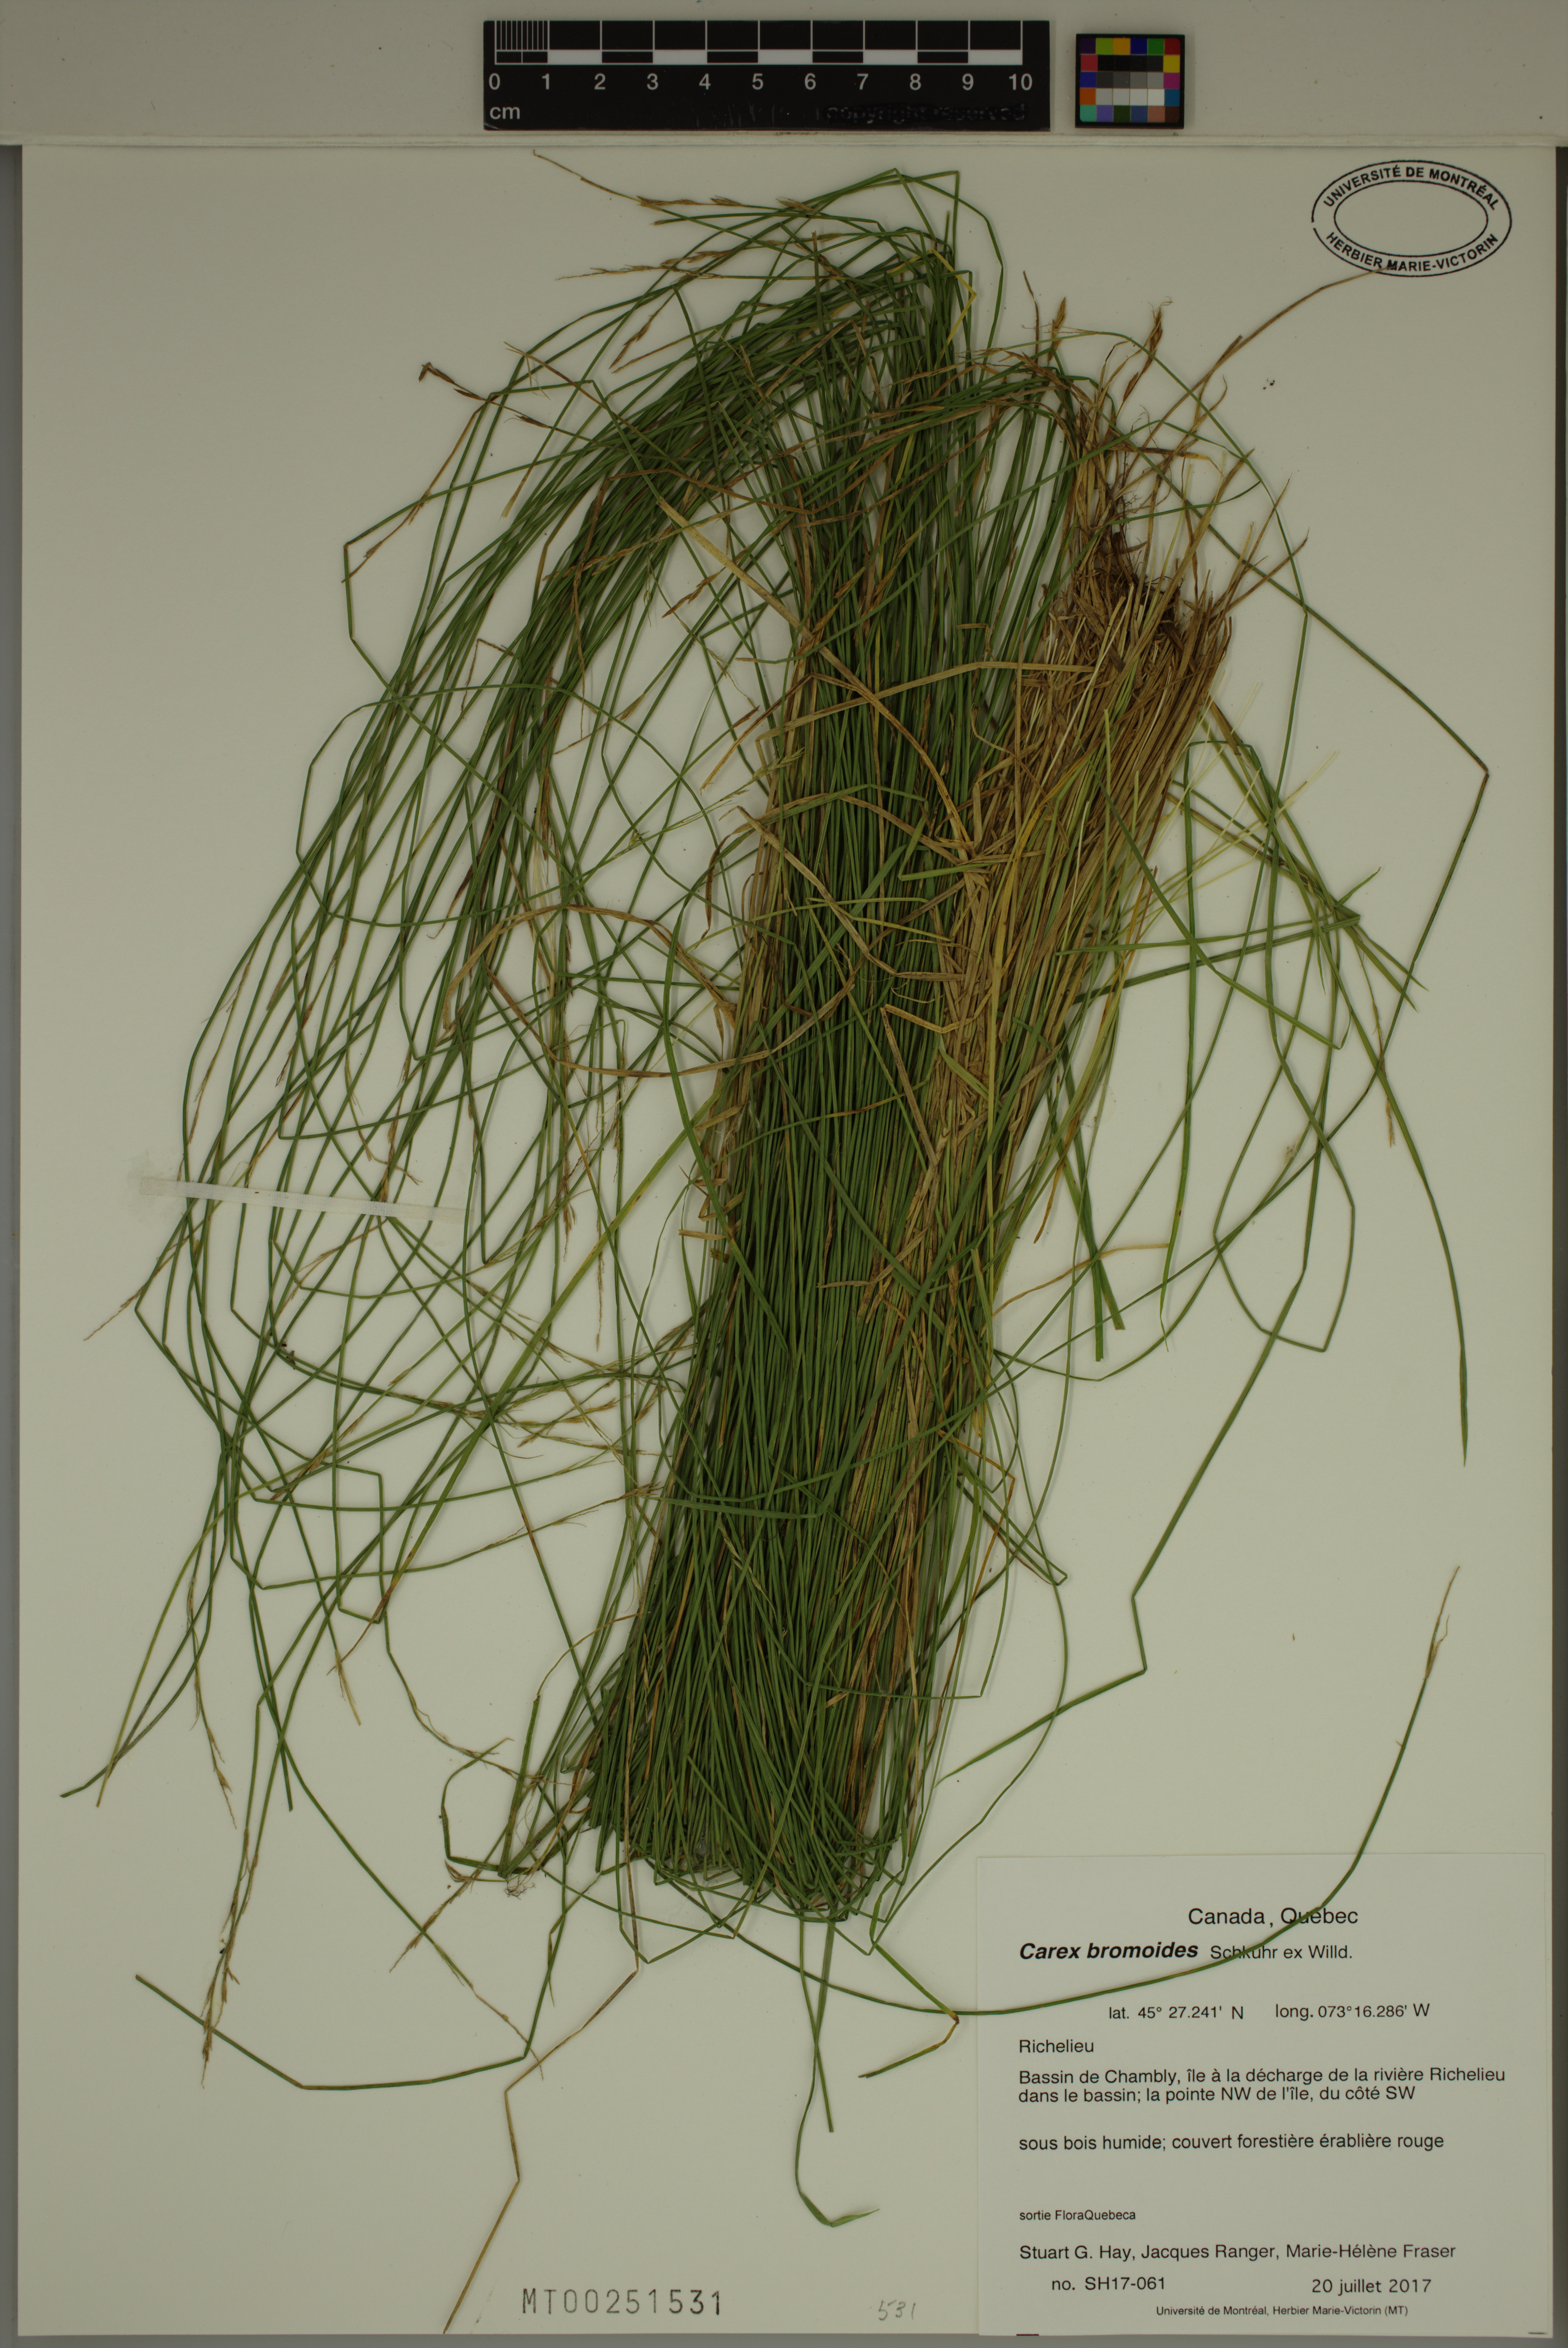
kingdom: Plantae
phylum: Tracheophyta
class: Liliopsida
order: Poales
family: Cyperaceae
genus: Carex
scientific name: Carex bromoides
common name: Brome hummock sedge
